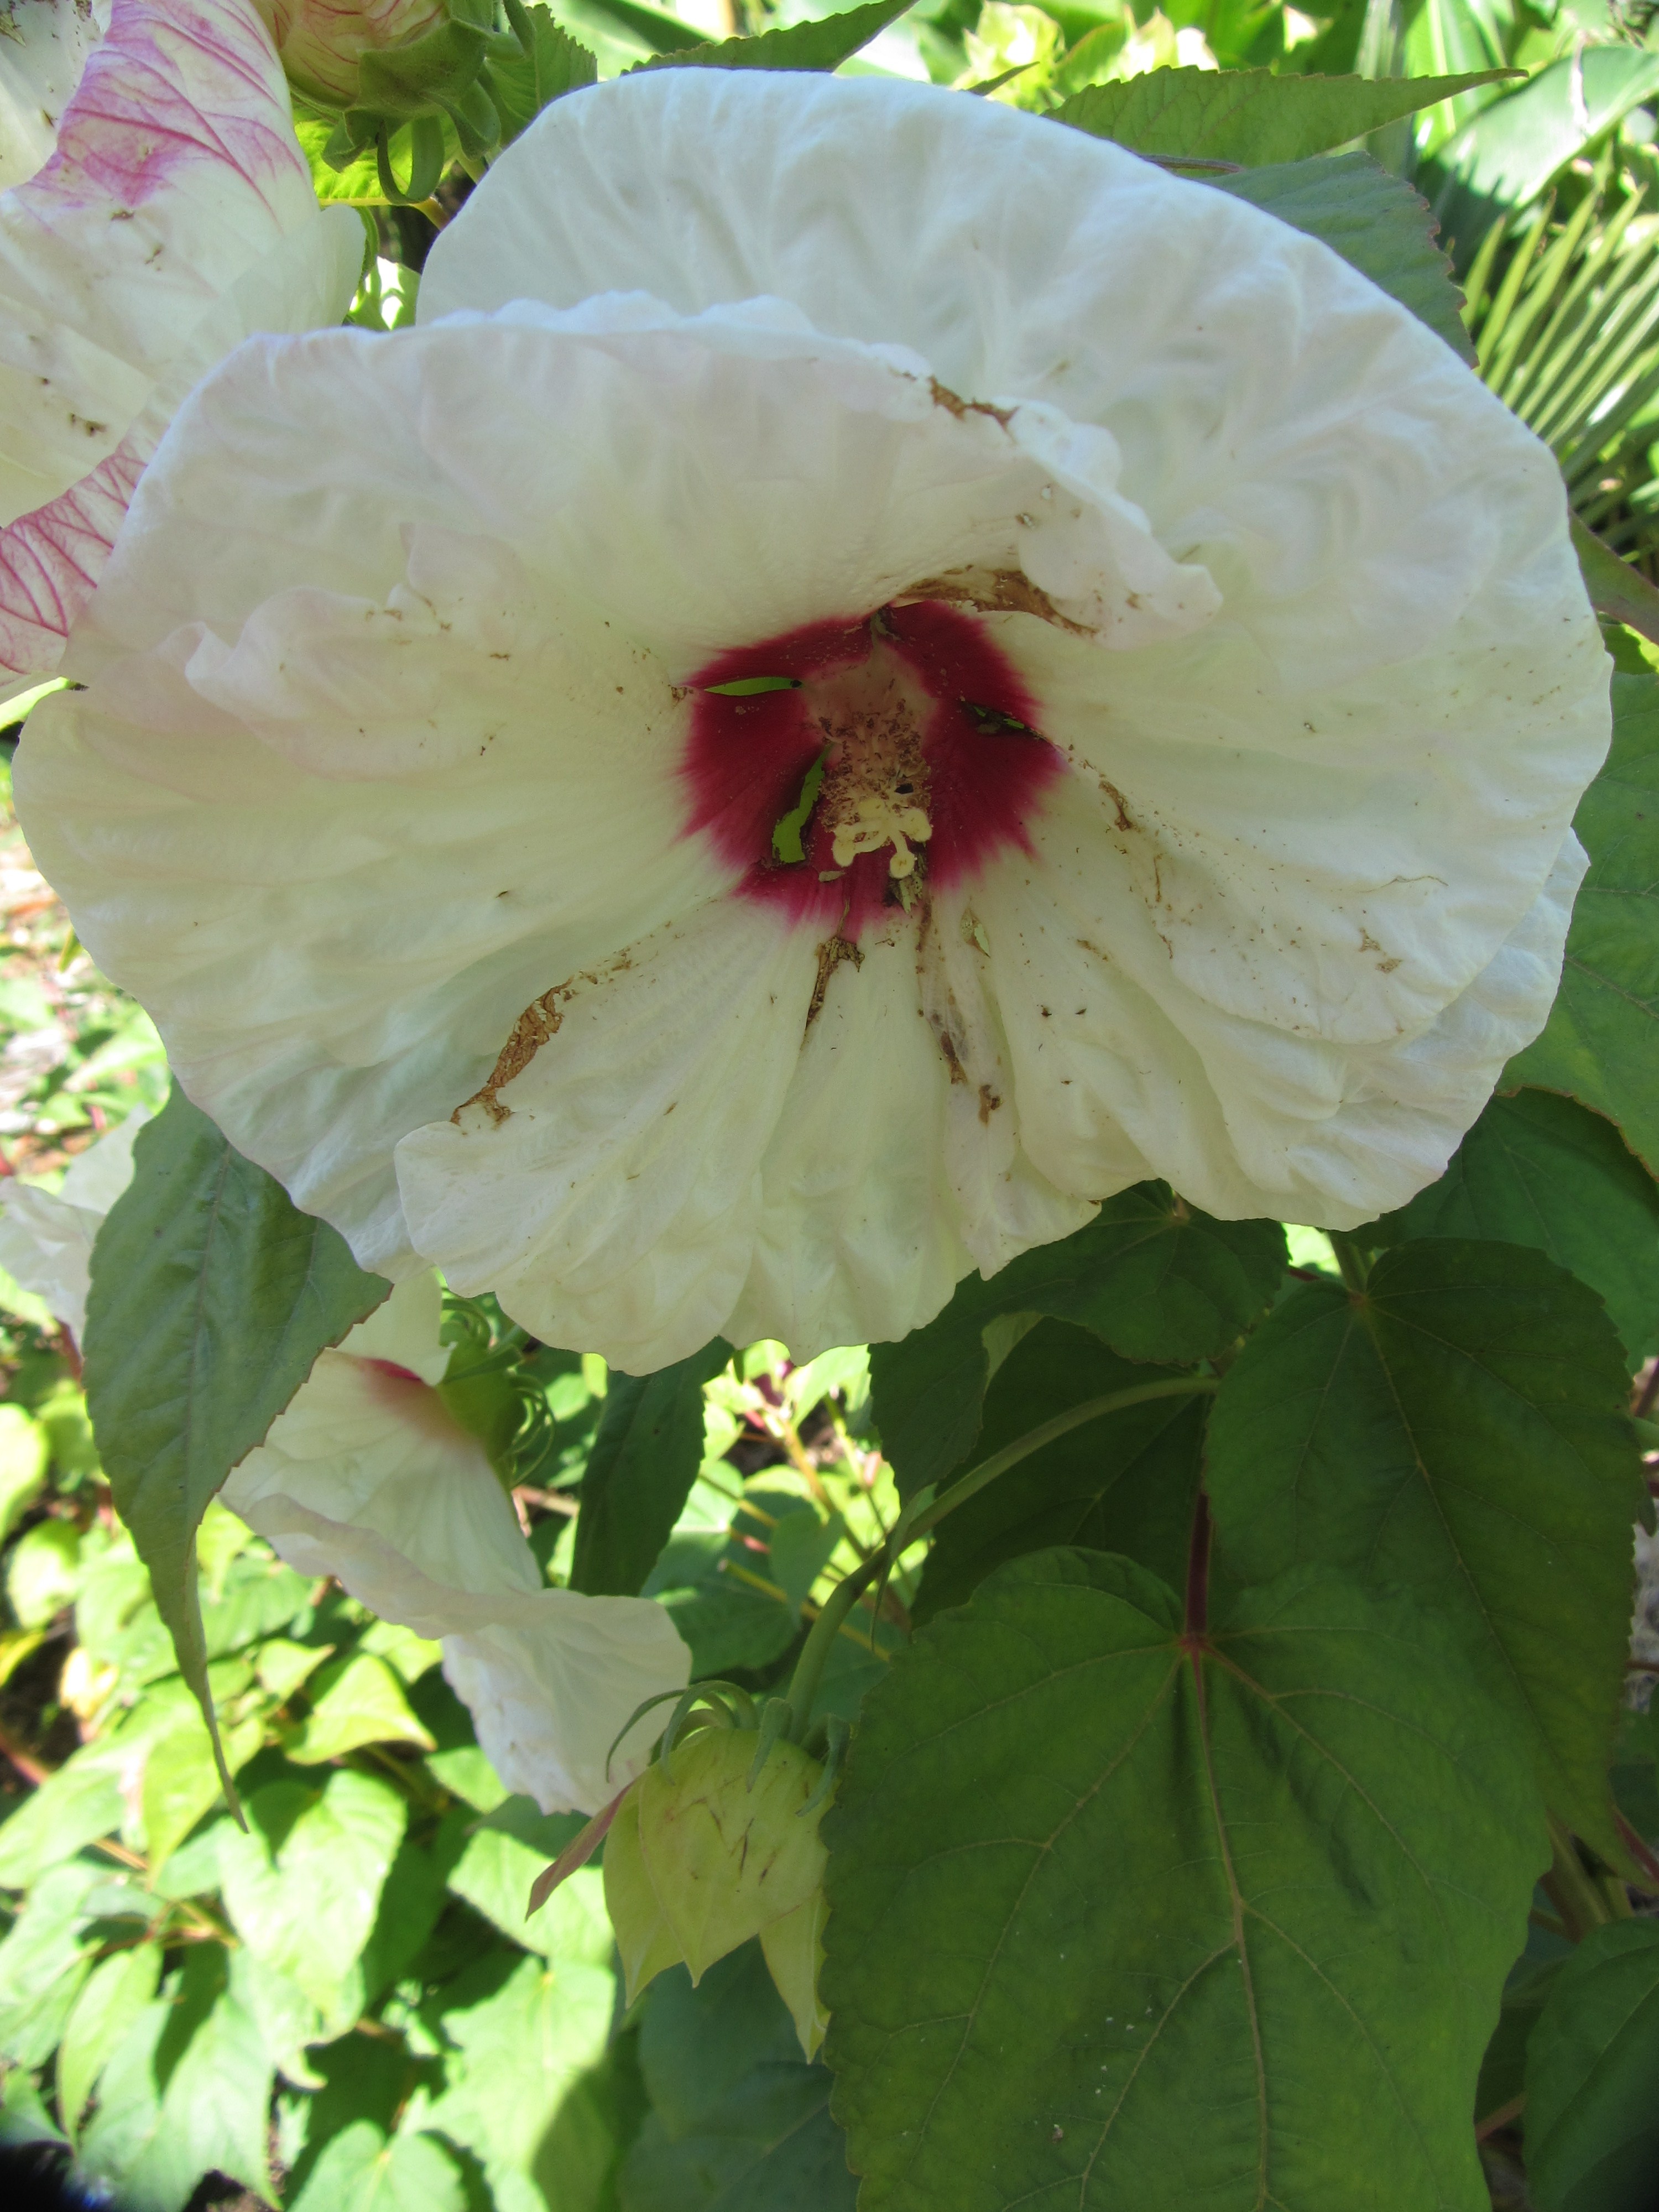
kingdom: Plantae
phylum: Tracheophyta
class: Magnoliopsida
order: Malvales
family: Malvaceae
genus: Hibiscus
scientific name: Hibiscus moscheutos
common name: Common rose-mallow
